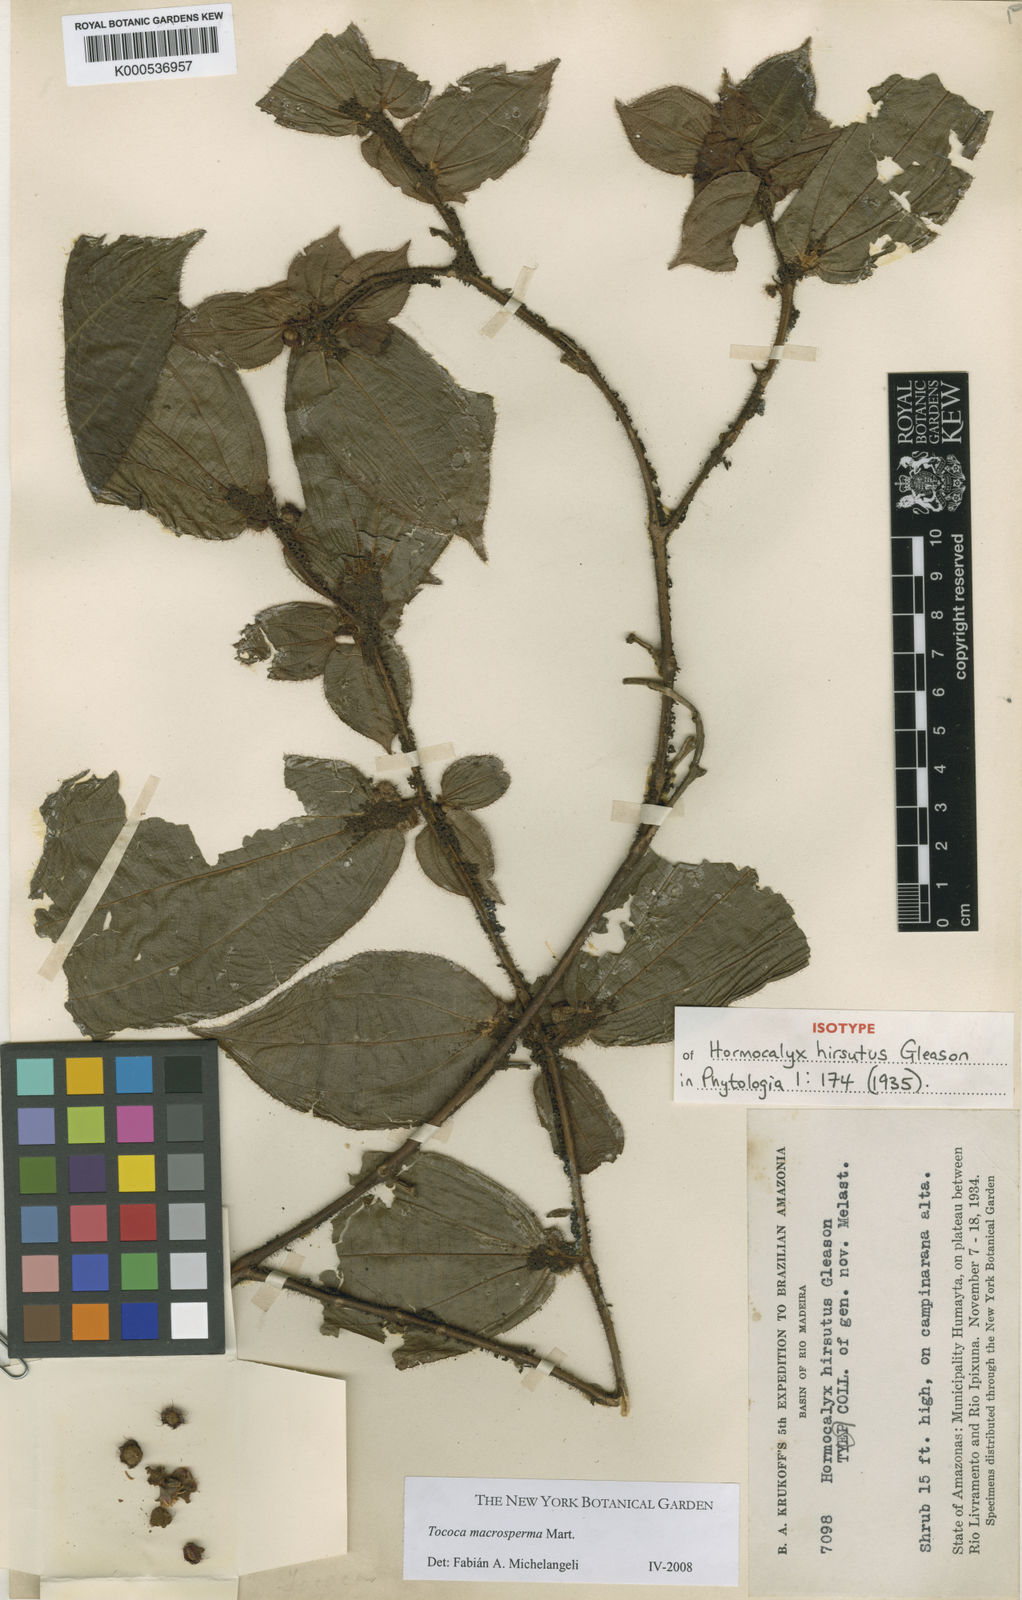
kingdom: Plantae
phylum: Tracheophyta
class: Magnoliopsida
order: Myrtales
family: Melastomataceae
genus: Miconia
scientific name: Miconia macrosperma
